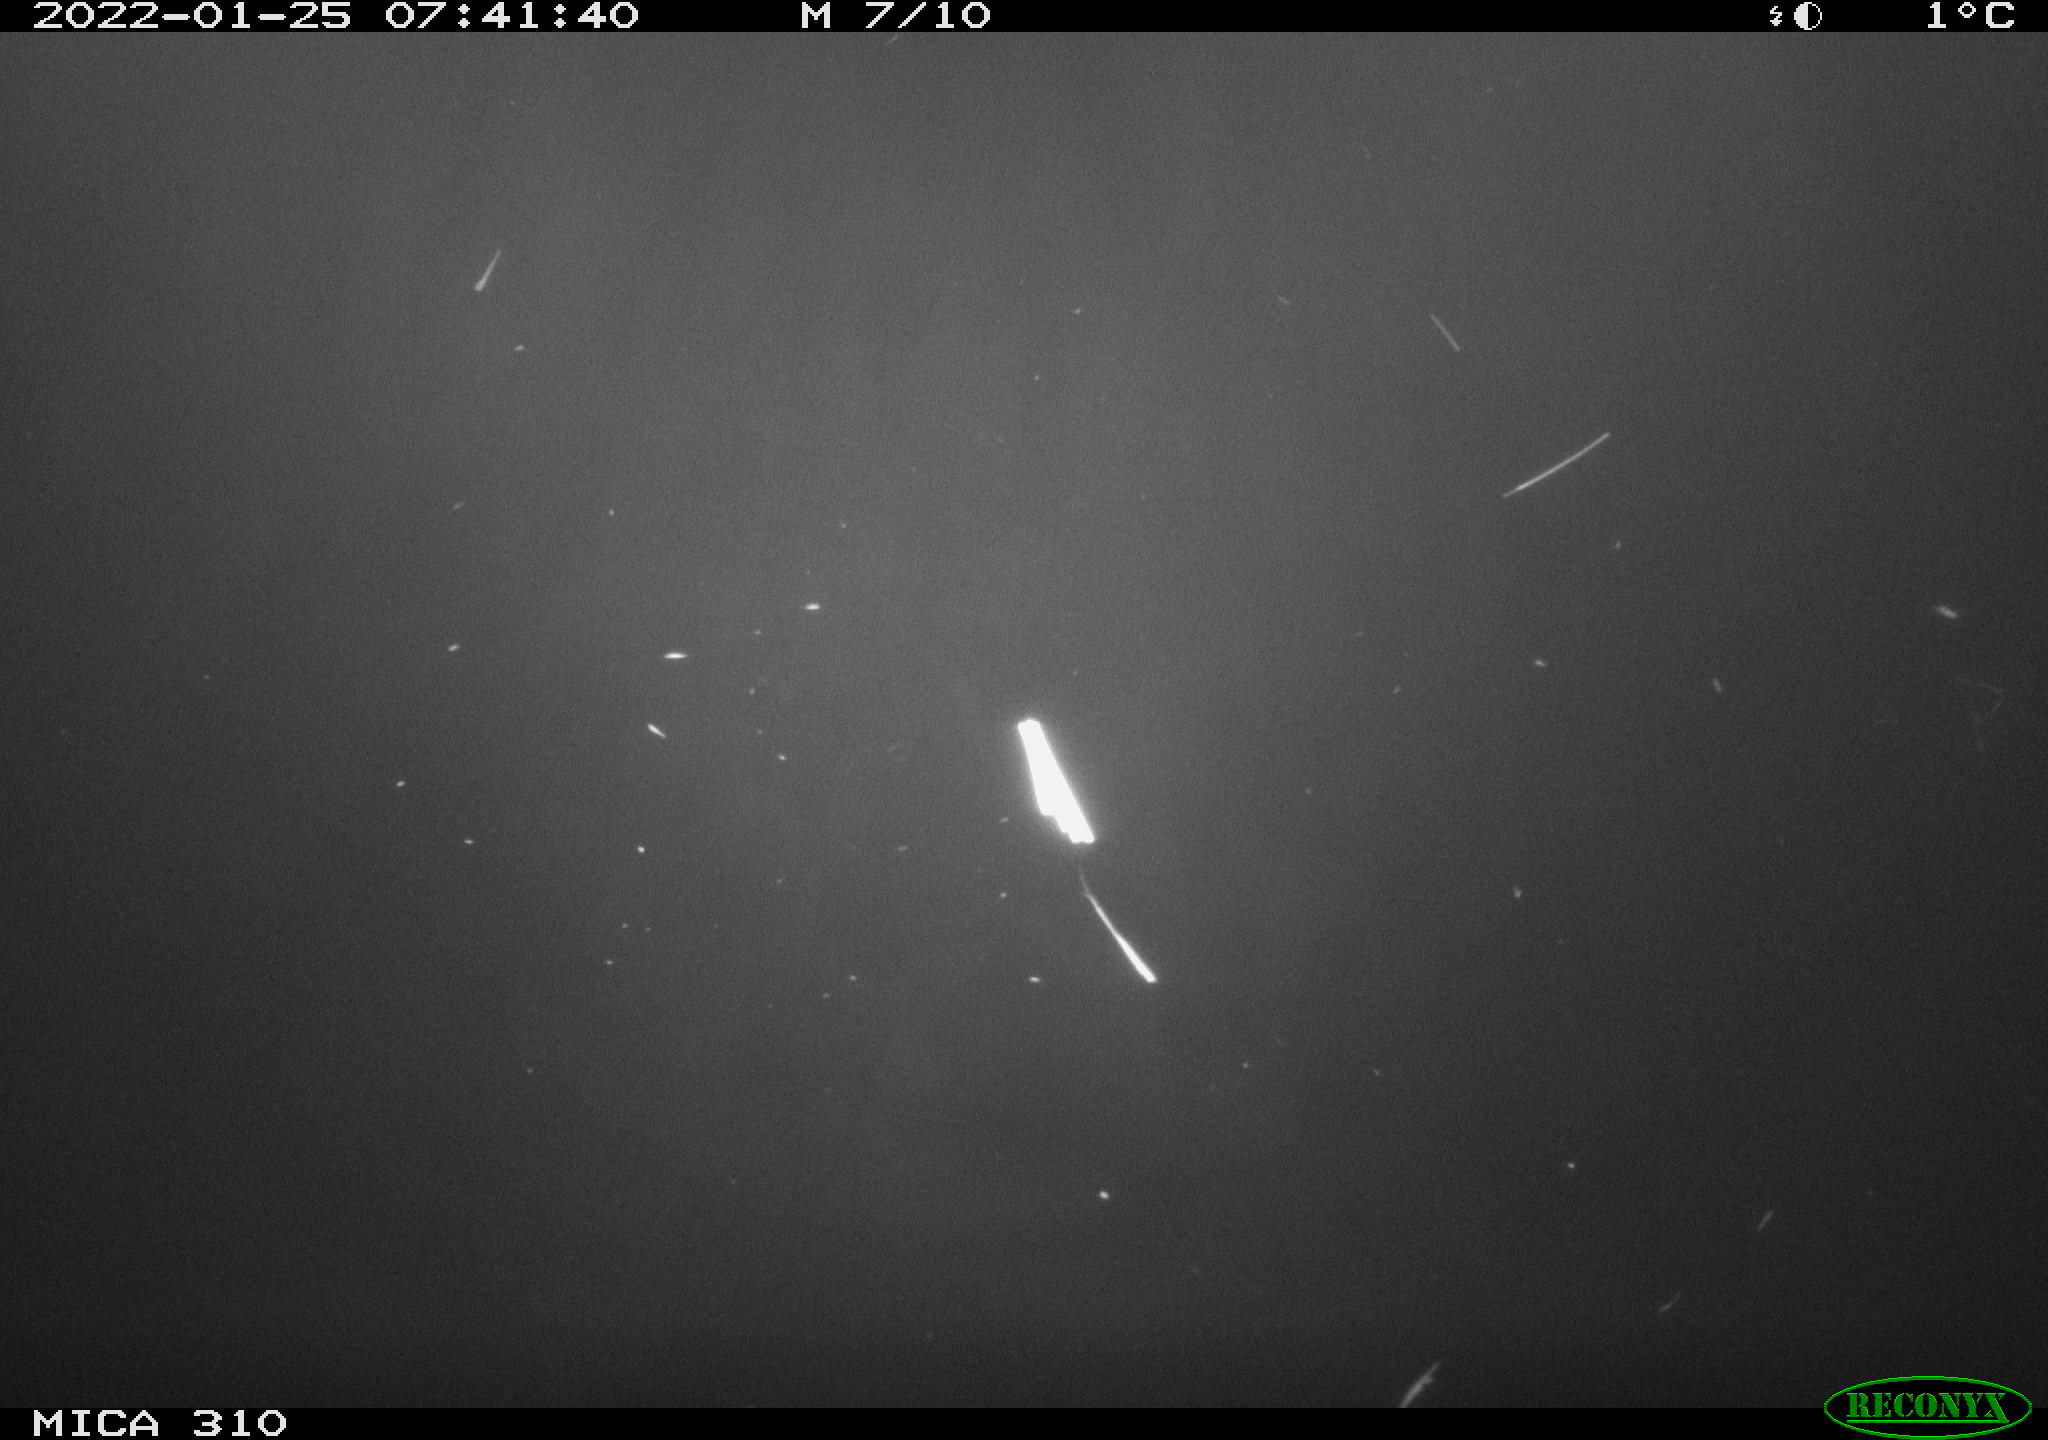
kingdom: Animalia
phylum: Chordata
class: Aves
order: Anseriformes
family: Anatidae
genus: Anas
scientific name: Anas
